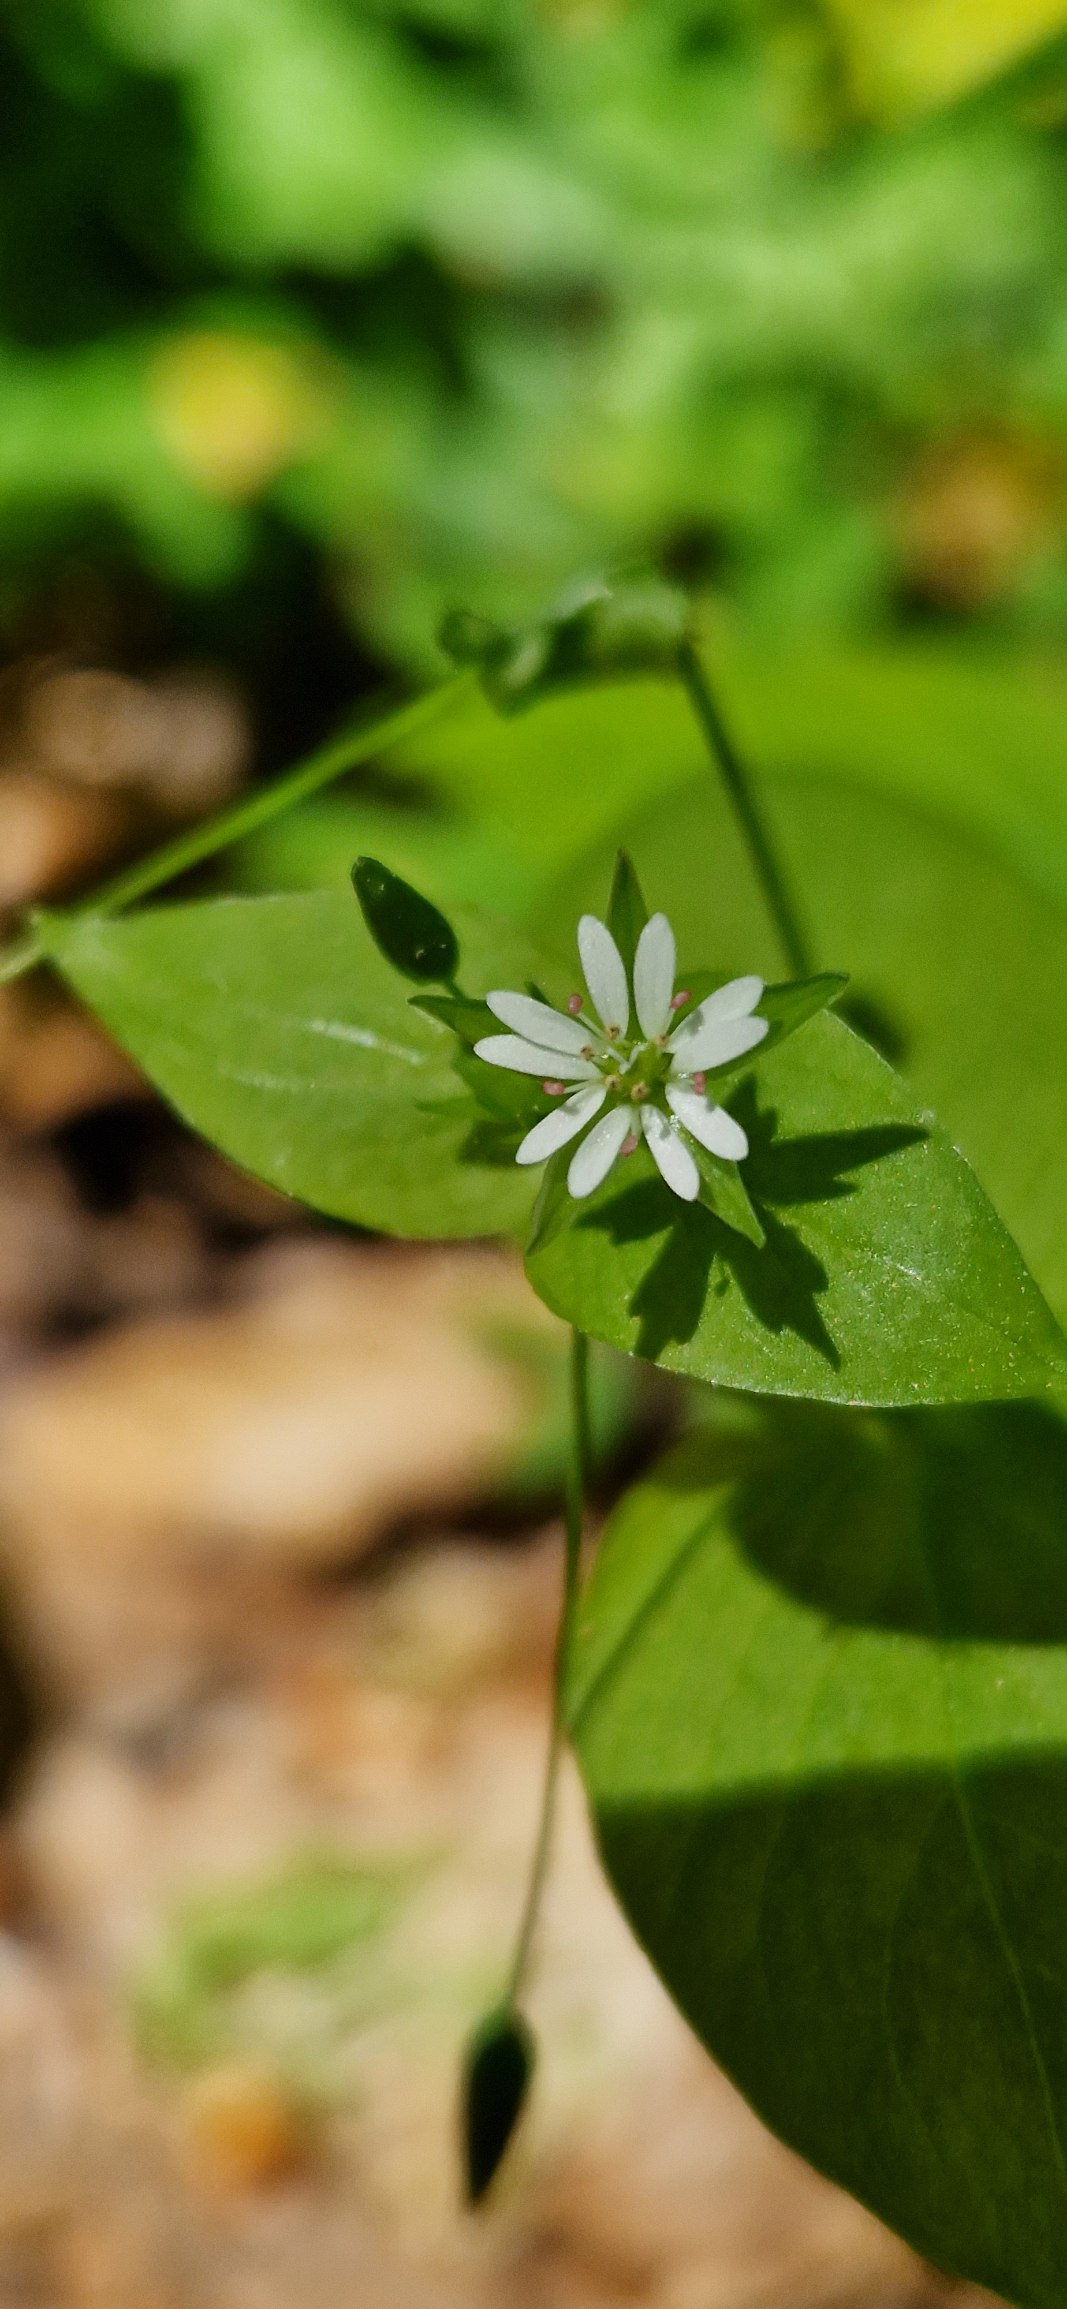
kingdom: Plantae
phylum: Tracheophyta
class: Magnoliopsida
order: Caryophyllales
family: Caryophyllaceae
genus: Stellaria
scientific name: Stellaria neglecta
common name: Skov-fuglegræs
